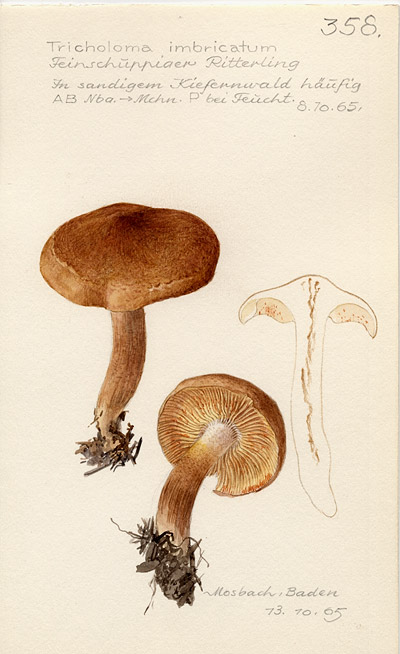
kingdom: Fungi
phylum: Basidiomycota
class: Agaricomycetes
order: Agaricales
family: Tricholomataceae
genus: Tricholoma
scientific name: Tricholoma imbricatum
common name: Matt knight
